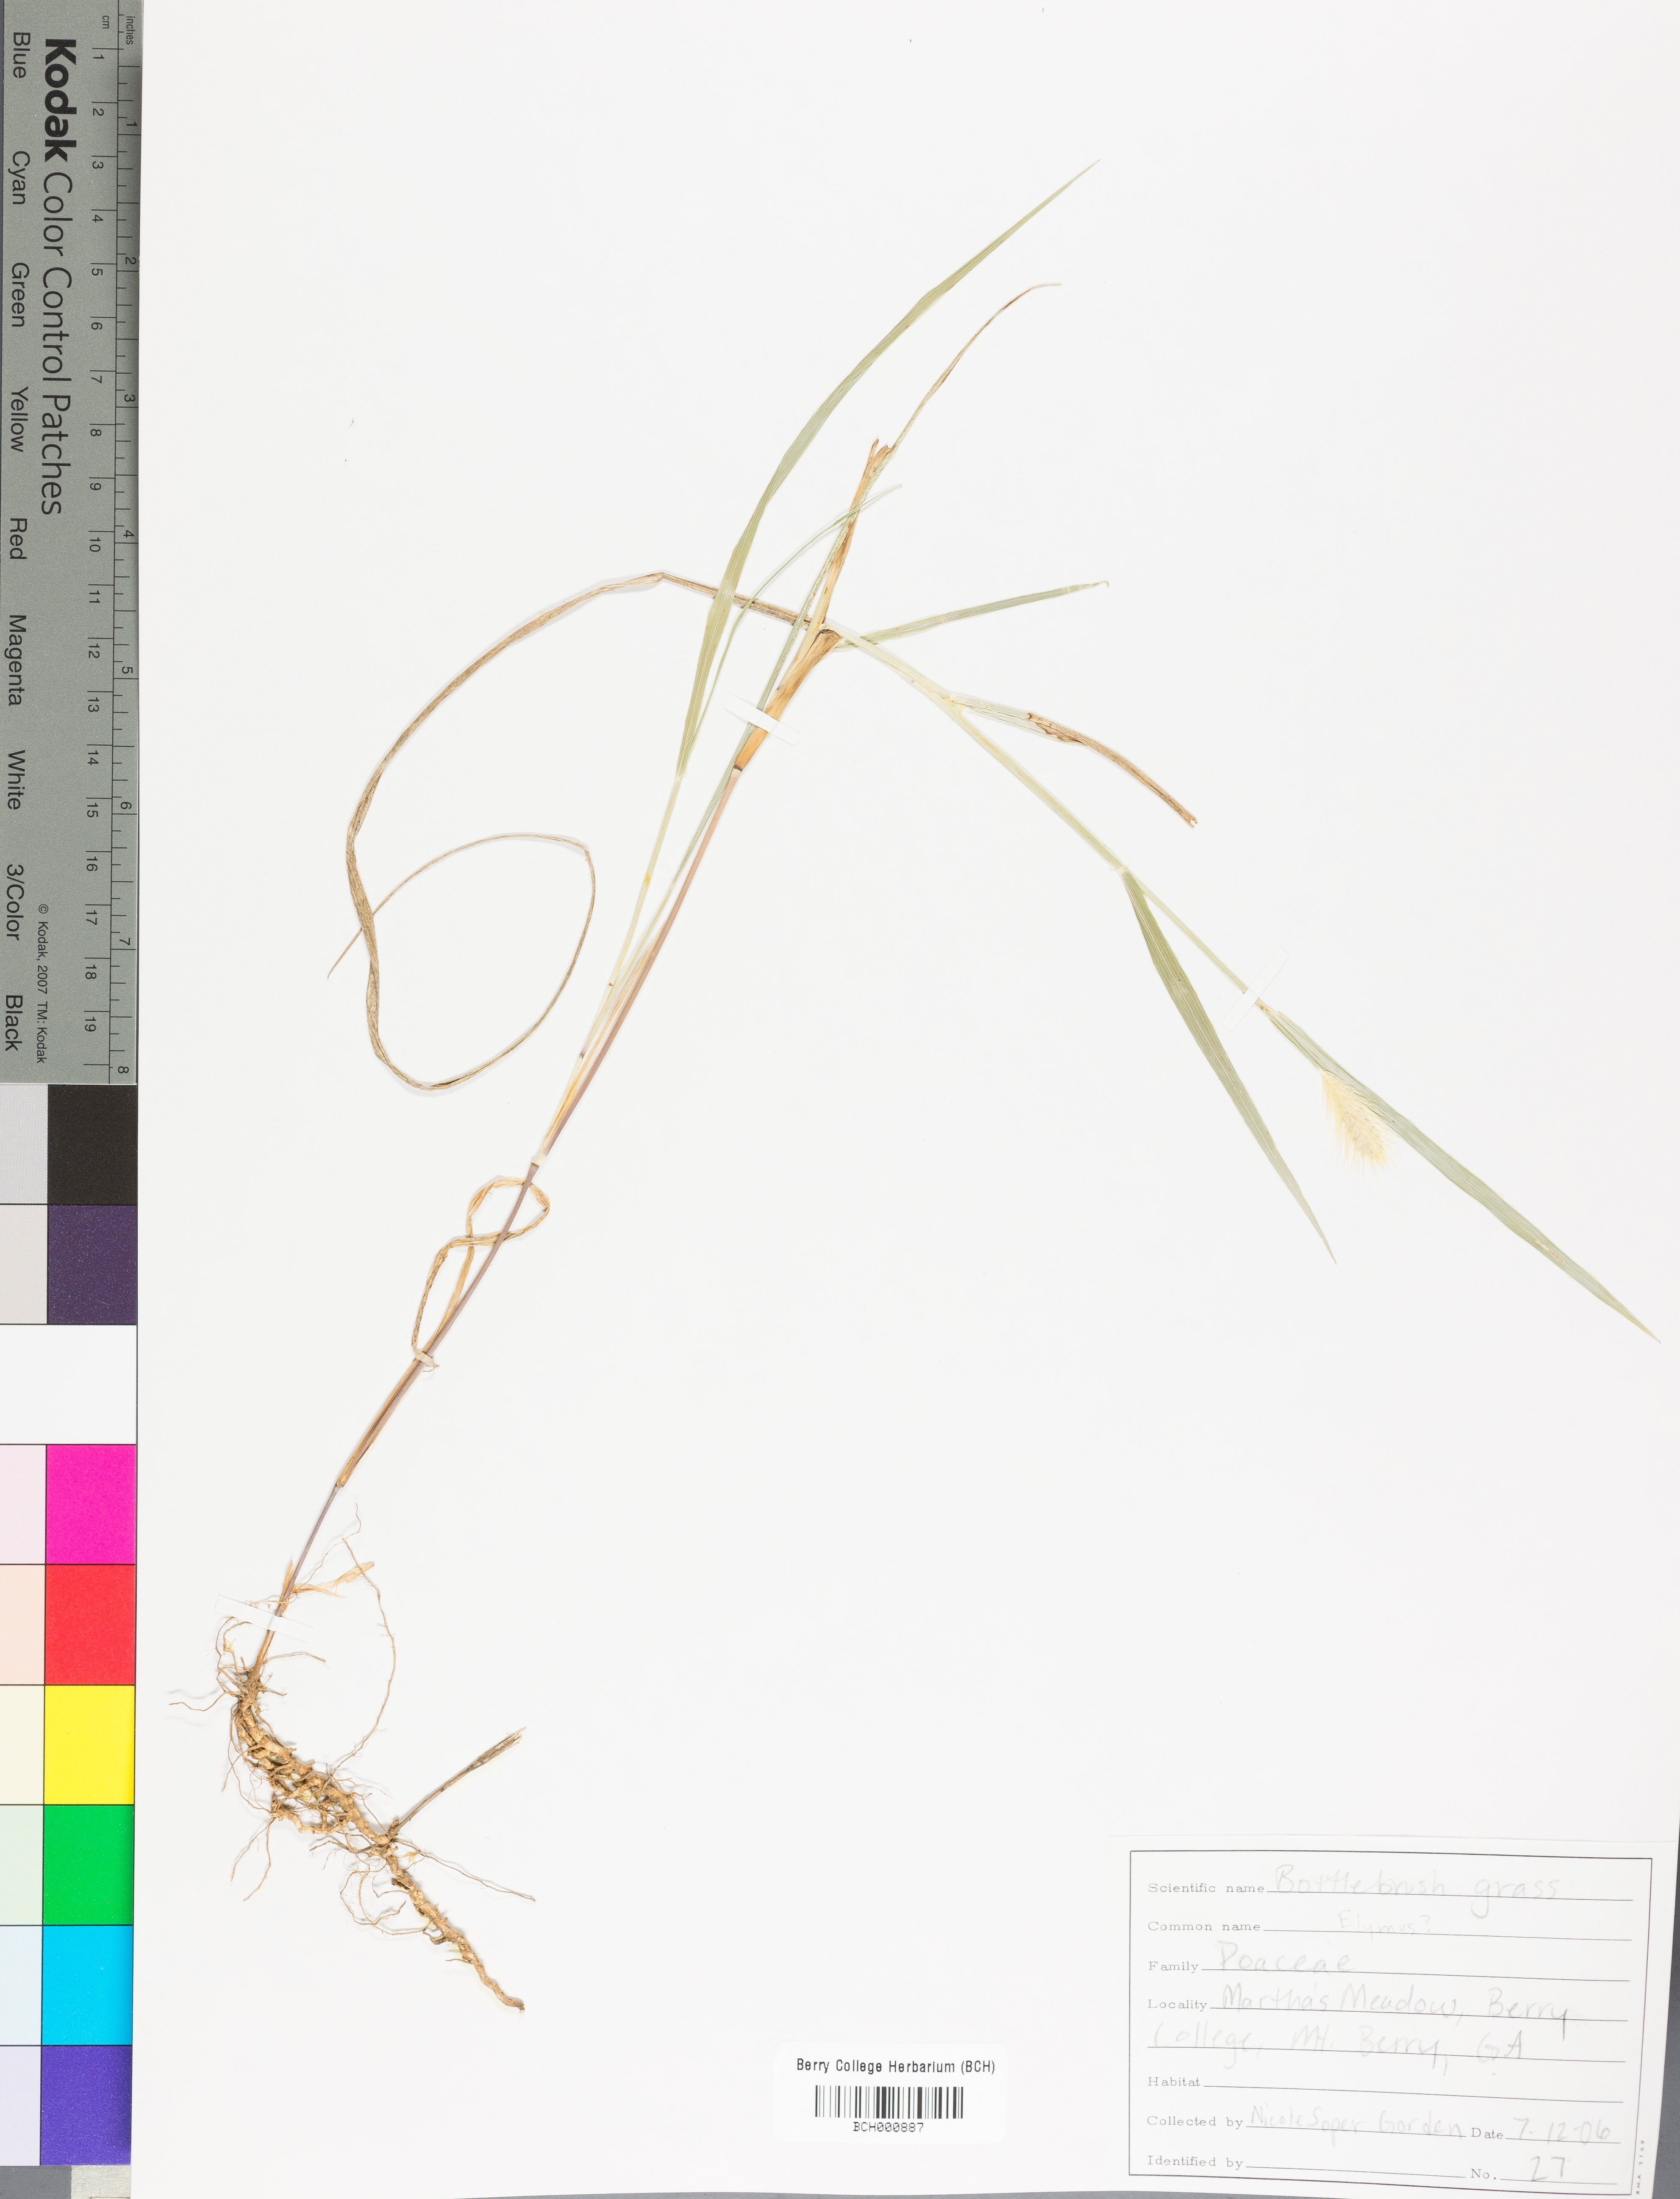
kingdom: Plantae
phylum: Tracheophyta
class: Magnoliopsida
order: Lamiales
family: Acanthaceae
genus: Adhatoda
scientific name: Adhatoda
